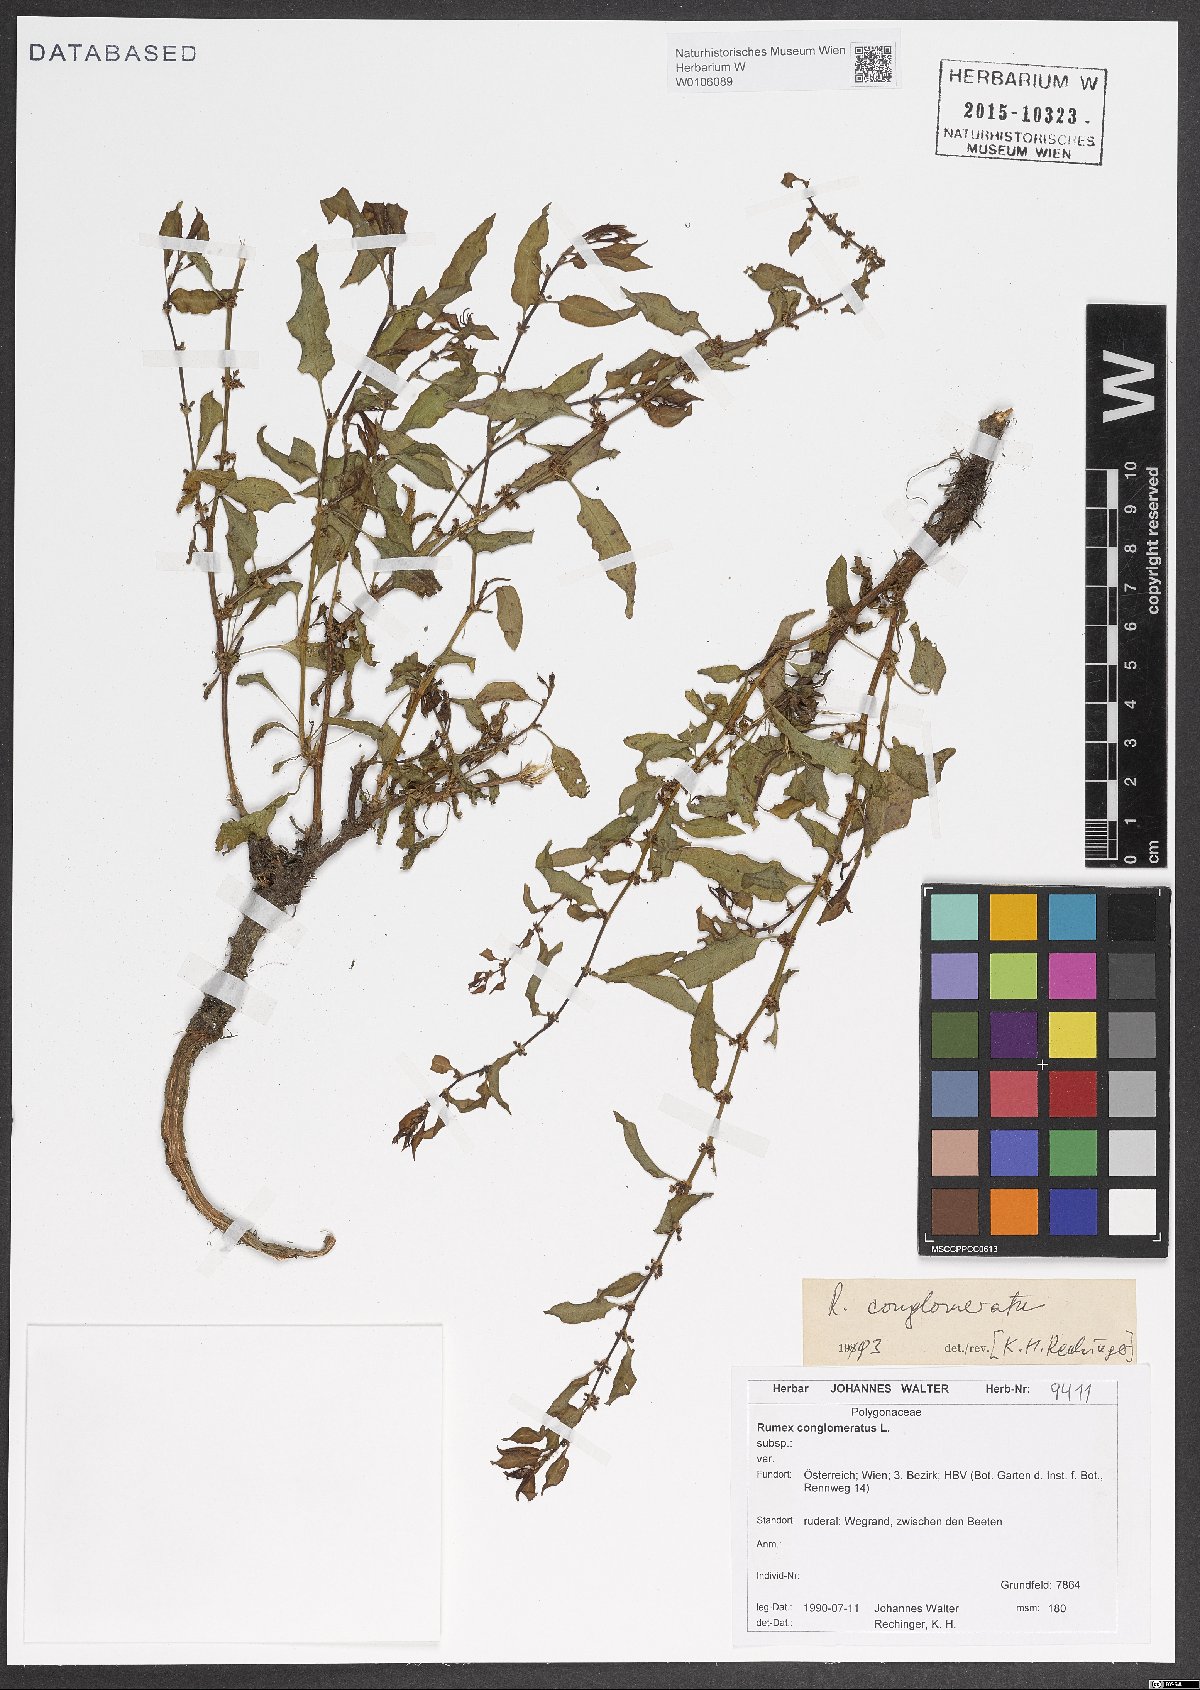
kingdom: Plantae
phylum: Tracheophyta
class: Magnoliopsida
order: Caryophyllales
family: Polygonaceae
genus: Rumex
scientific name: Rumex conglomeratus
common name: Clustered dock
